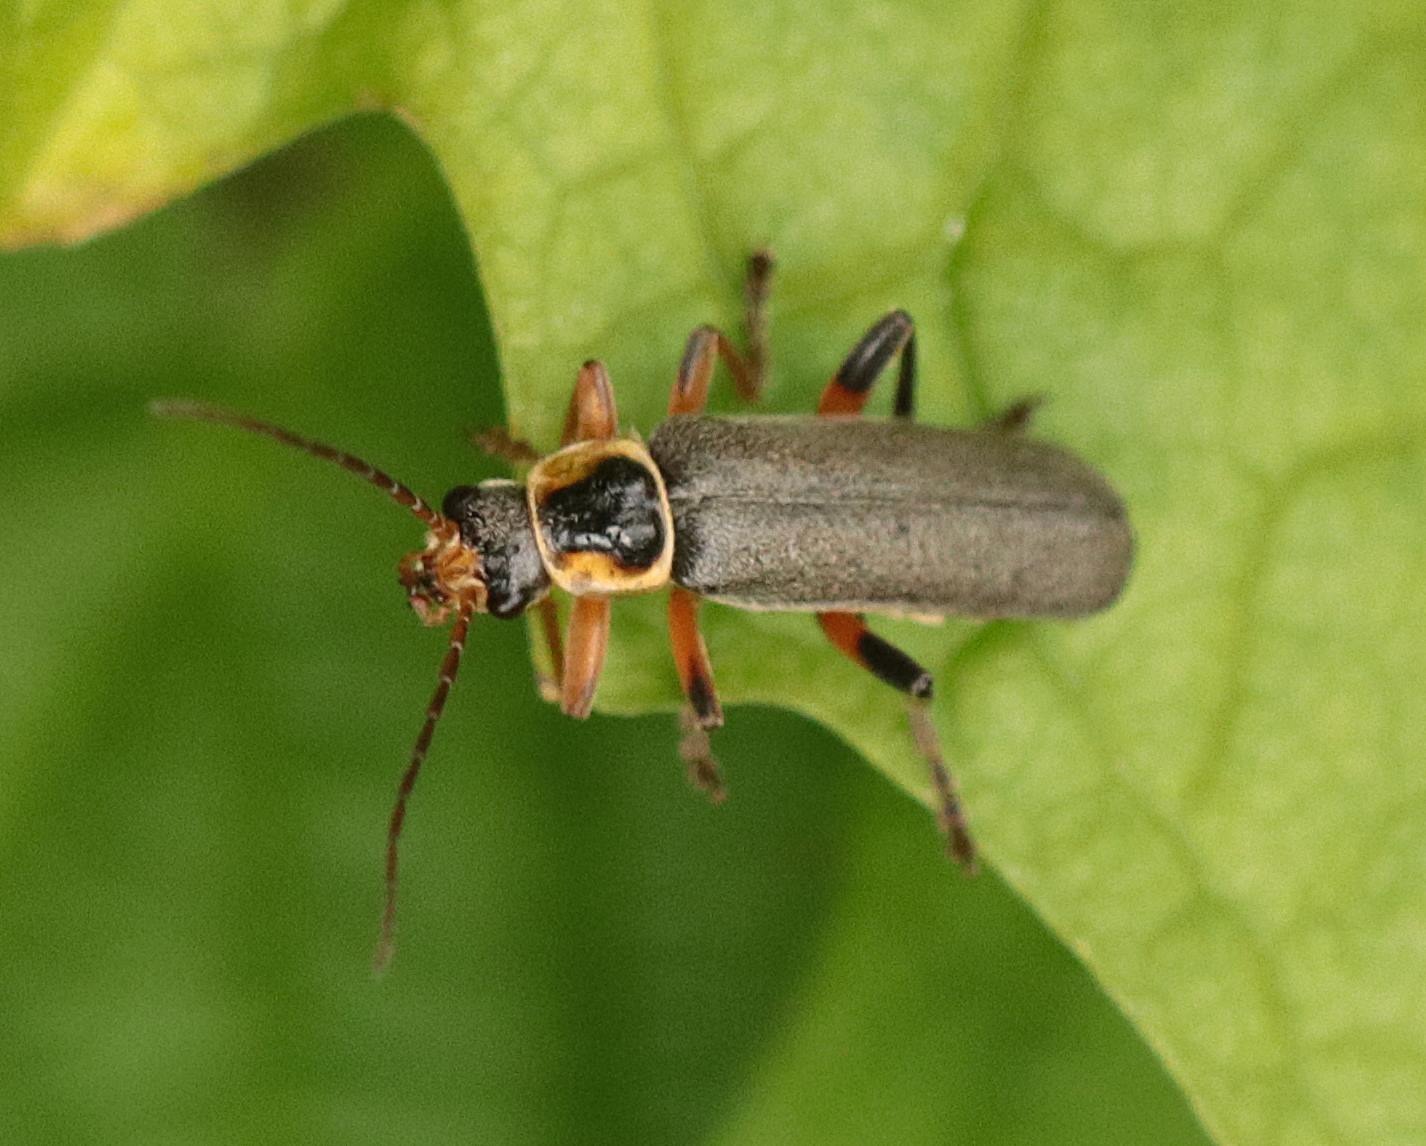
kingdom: Animalia
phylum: Arthropoda
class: Insecta
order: Coleoptera
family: Cantharidae
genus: Cantharis
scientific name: Cantharis nigricans
